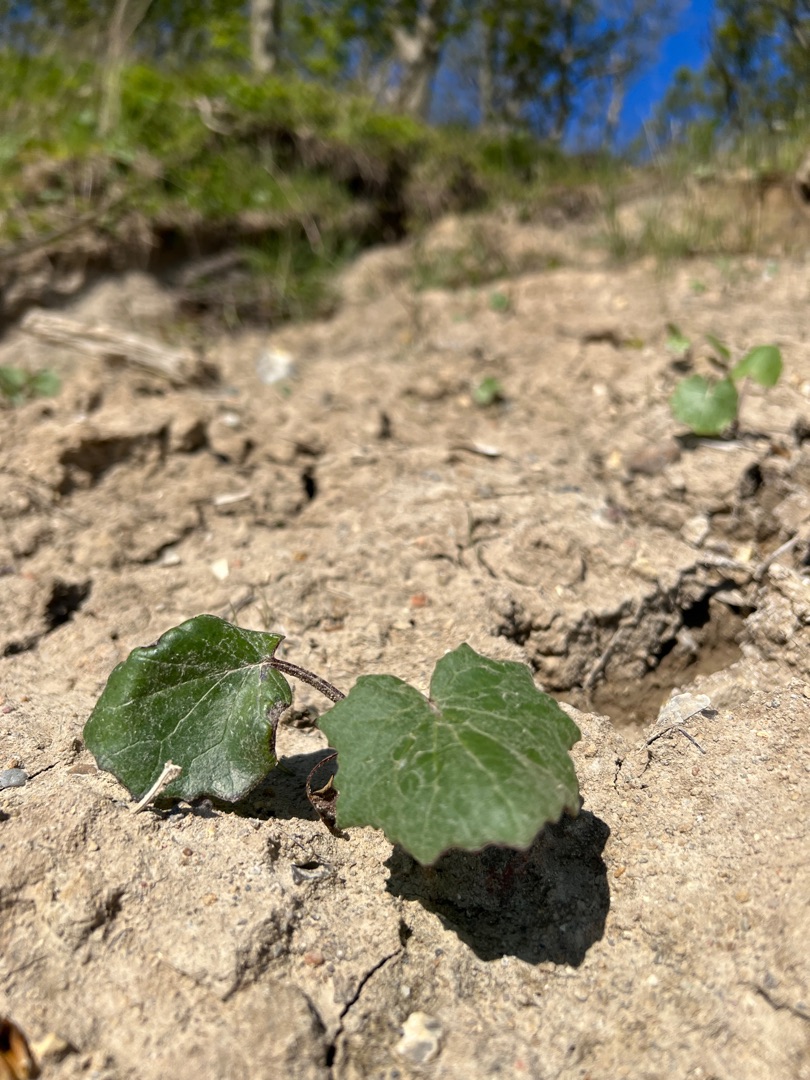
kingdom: Plantae
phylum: Tracheophyta
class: Magnoliopsida
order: Asterales
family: Asteraceae
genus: Tussilago
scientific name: Tussilago farfara
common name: Følfod
